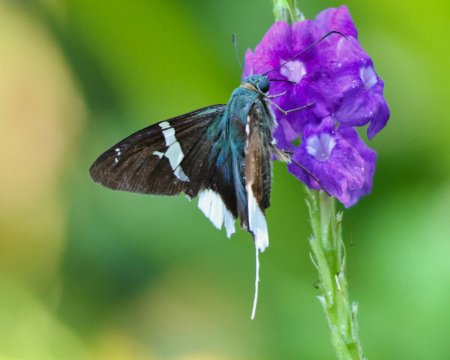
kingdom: Animalia
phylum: Arthropoda
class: Insecta
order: Lepidoptera
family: Hesperiidae
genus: Urbanus
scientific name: Urbanus chalco
